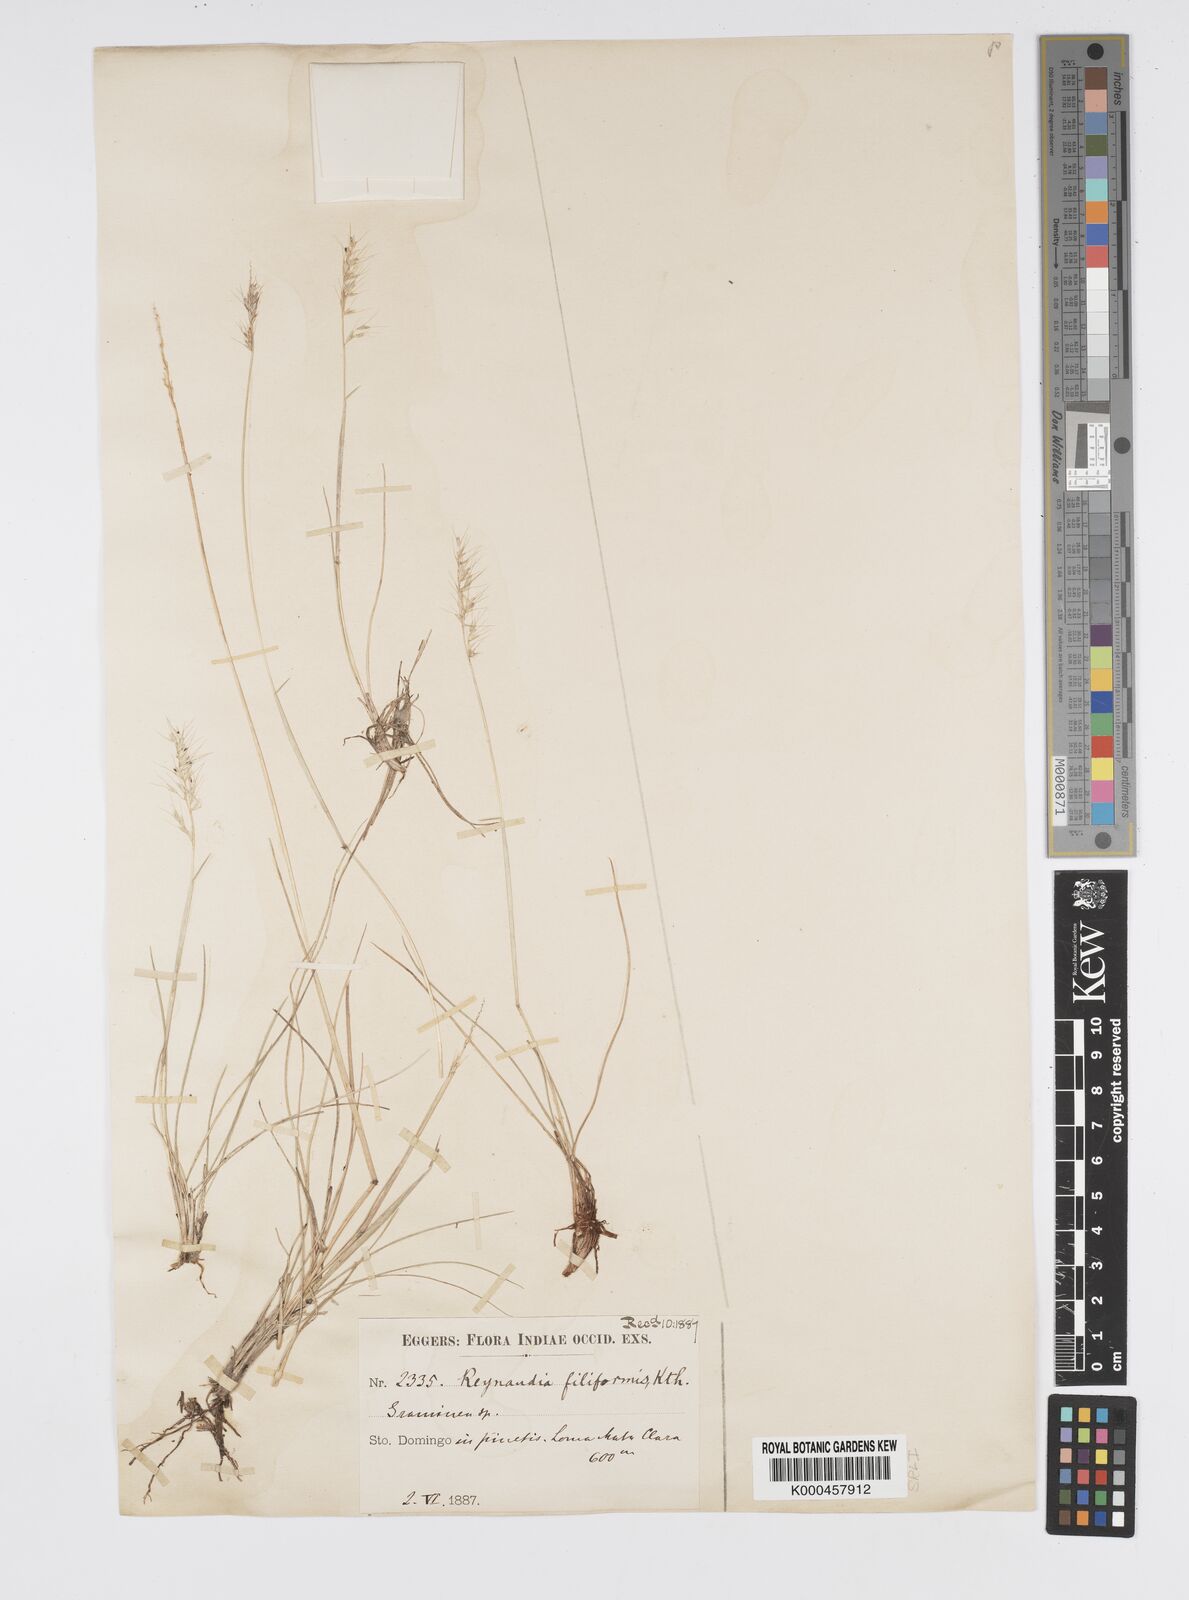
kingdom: Plantae
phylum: Tracheophyta
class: Liliopsida
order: Poales
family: Poaceae
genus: Reynaudia
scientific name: Reynaudia filiformis
